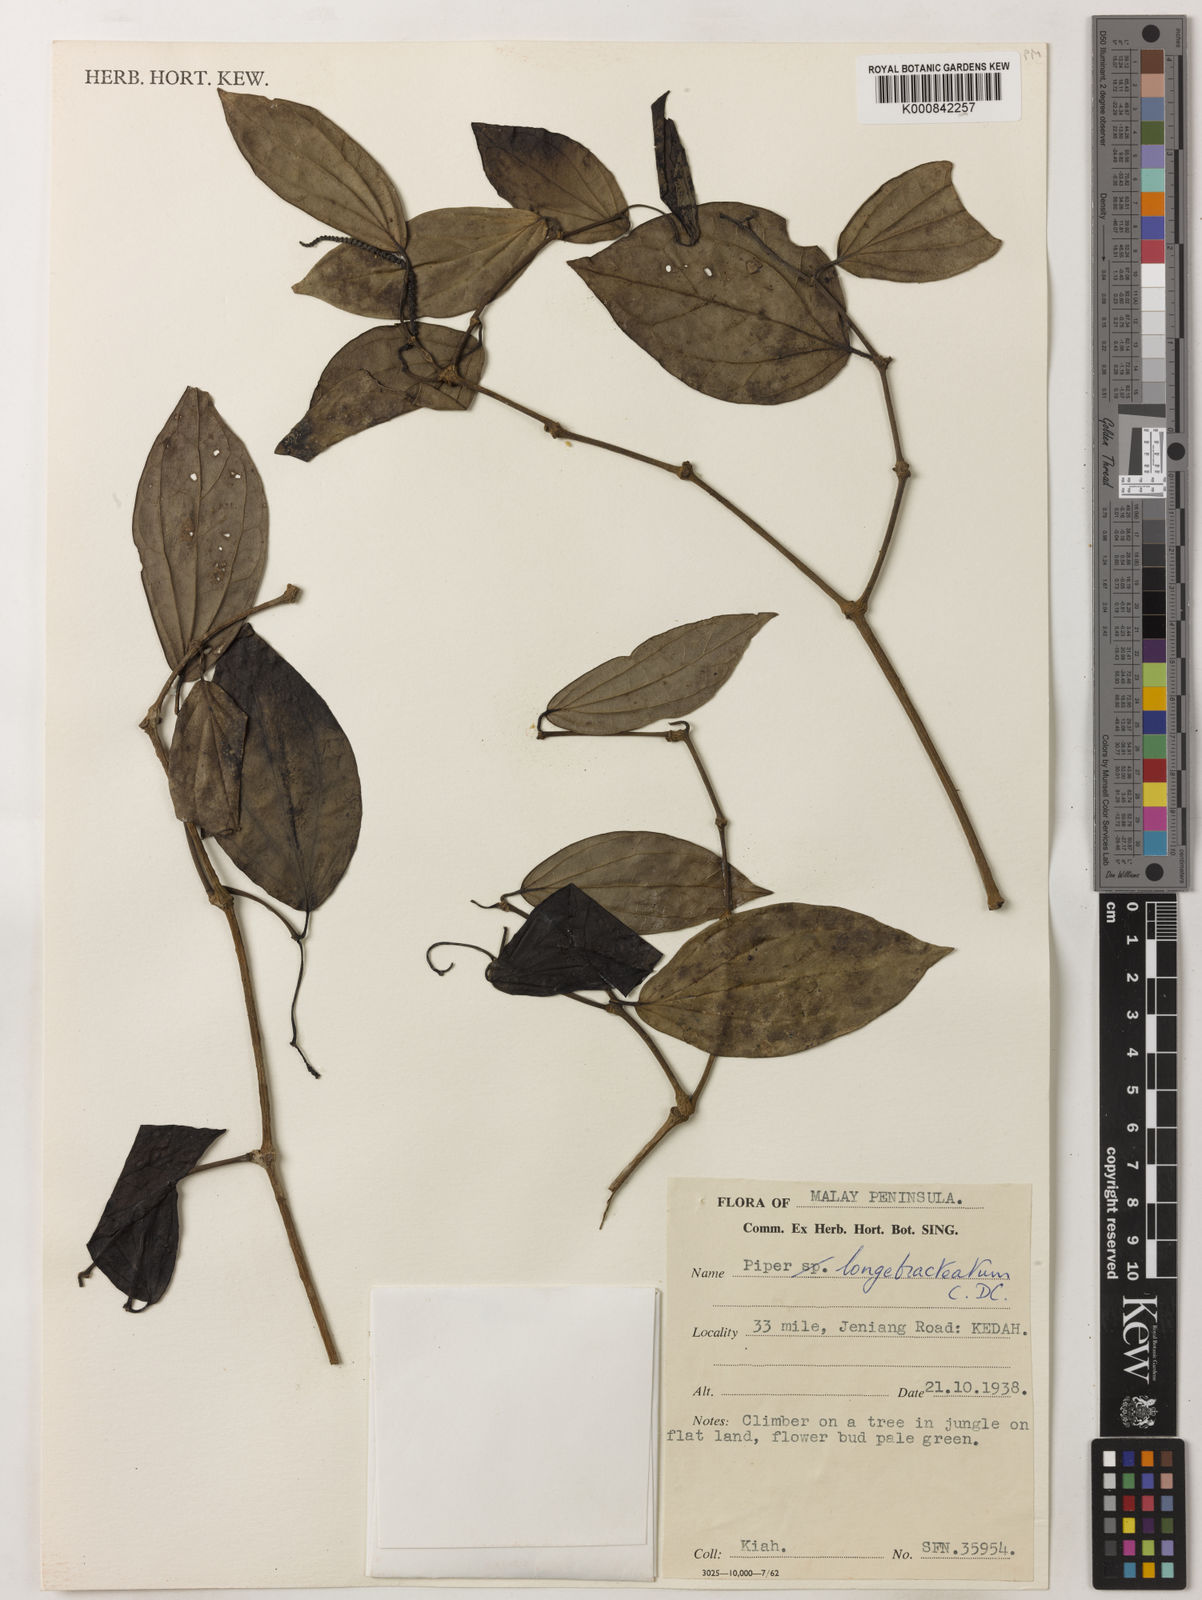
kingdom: Plantae
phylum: Tracheophyta
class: Magnoliopsida
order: Piperales
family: Piperaceae
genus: Piper
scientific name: Piper griffithii
